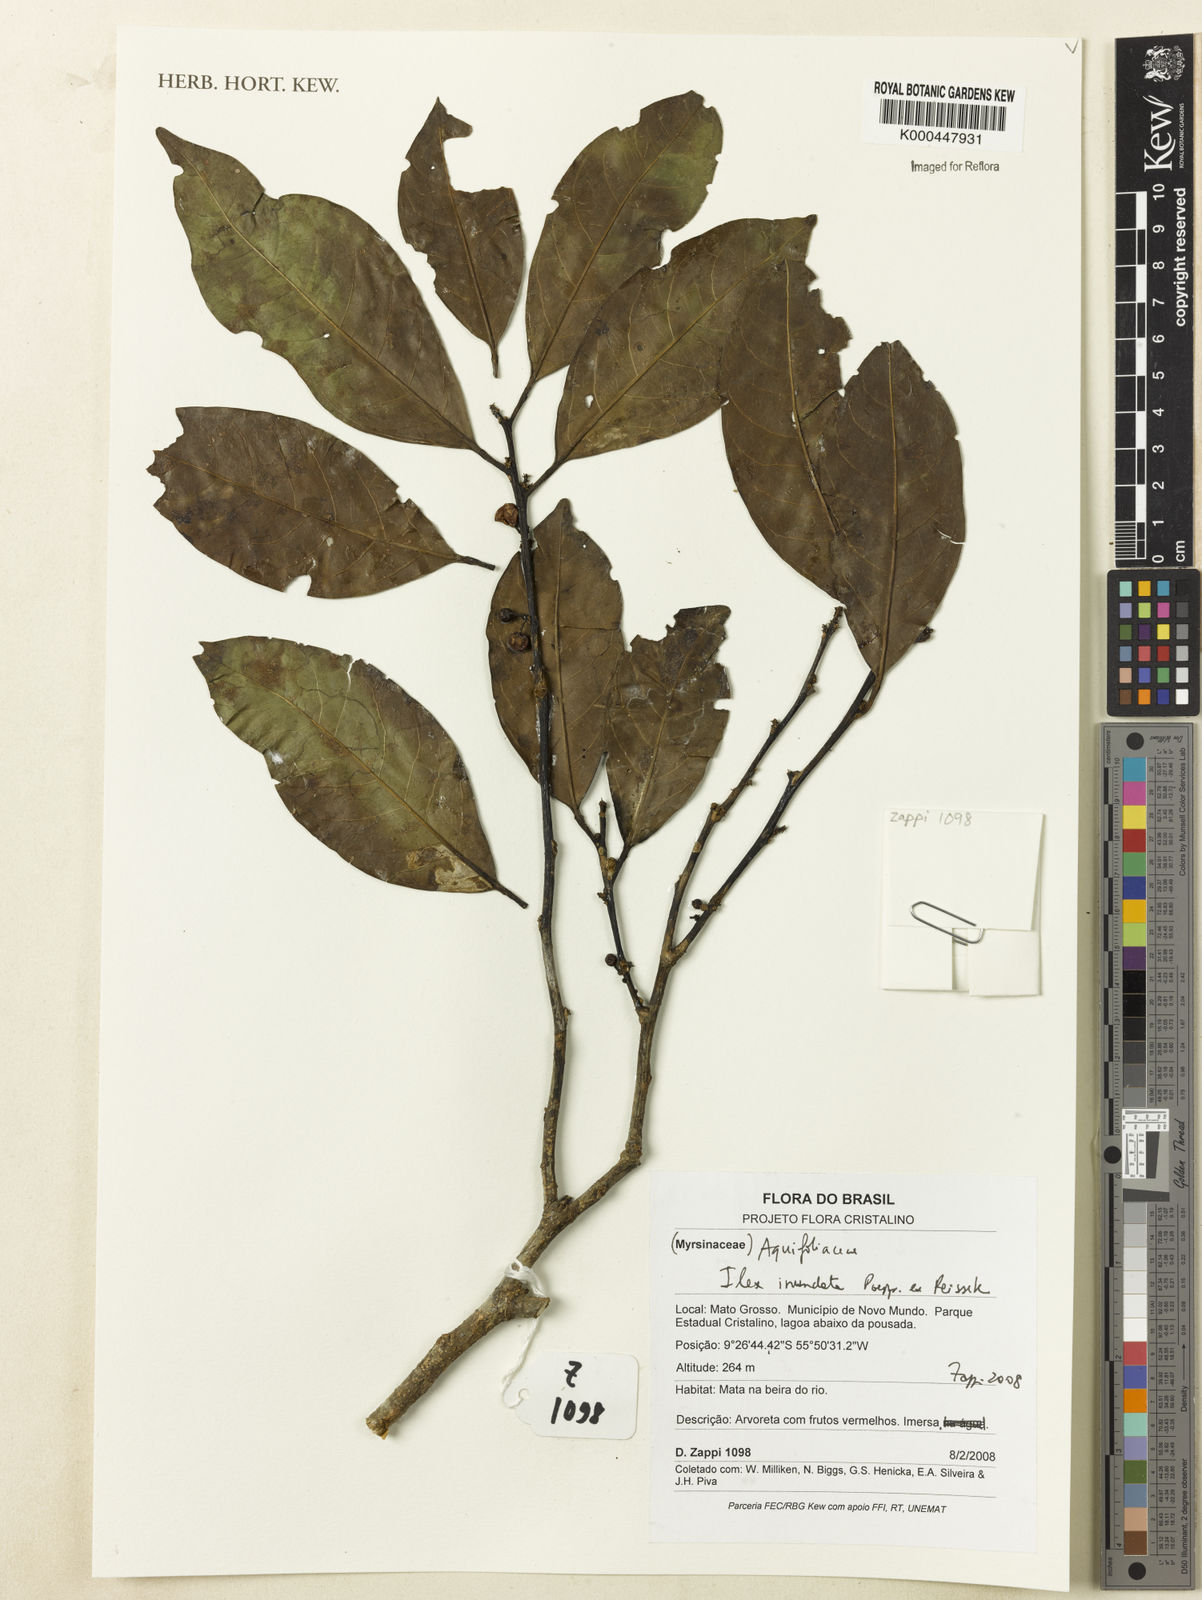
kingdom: Plantae
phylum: Tracheophyta
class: Magnoliopsida
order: Aquifoliales
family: Aquifoliaceae
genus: Ilex
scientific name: Ilex inundata
